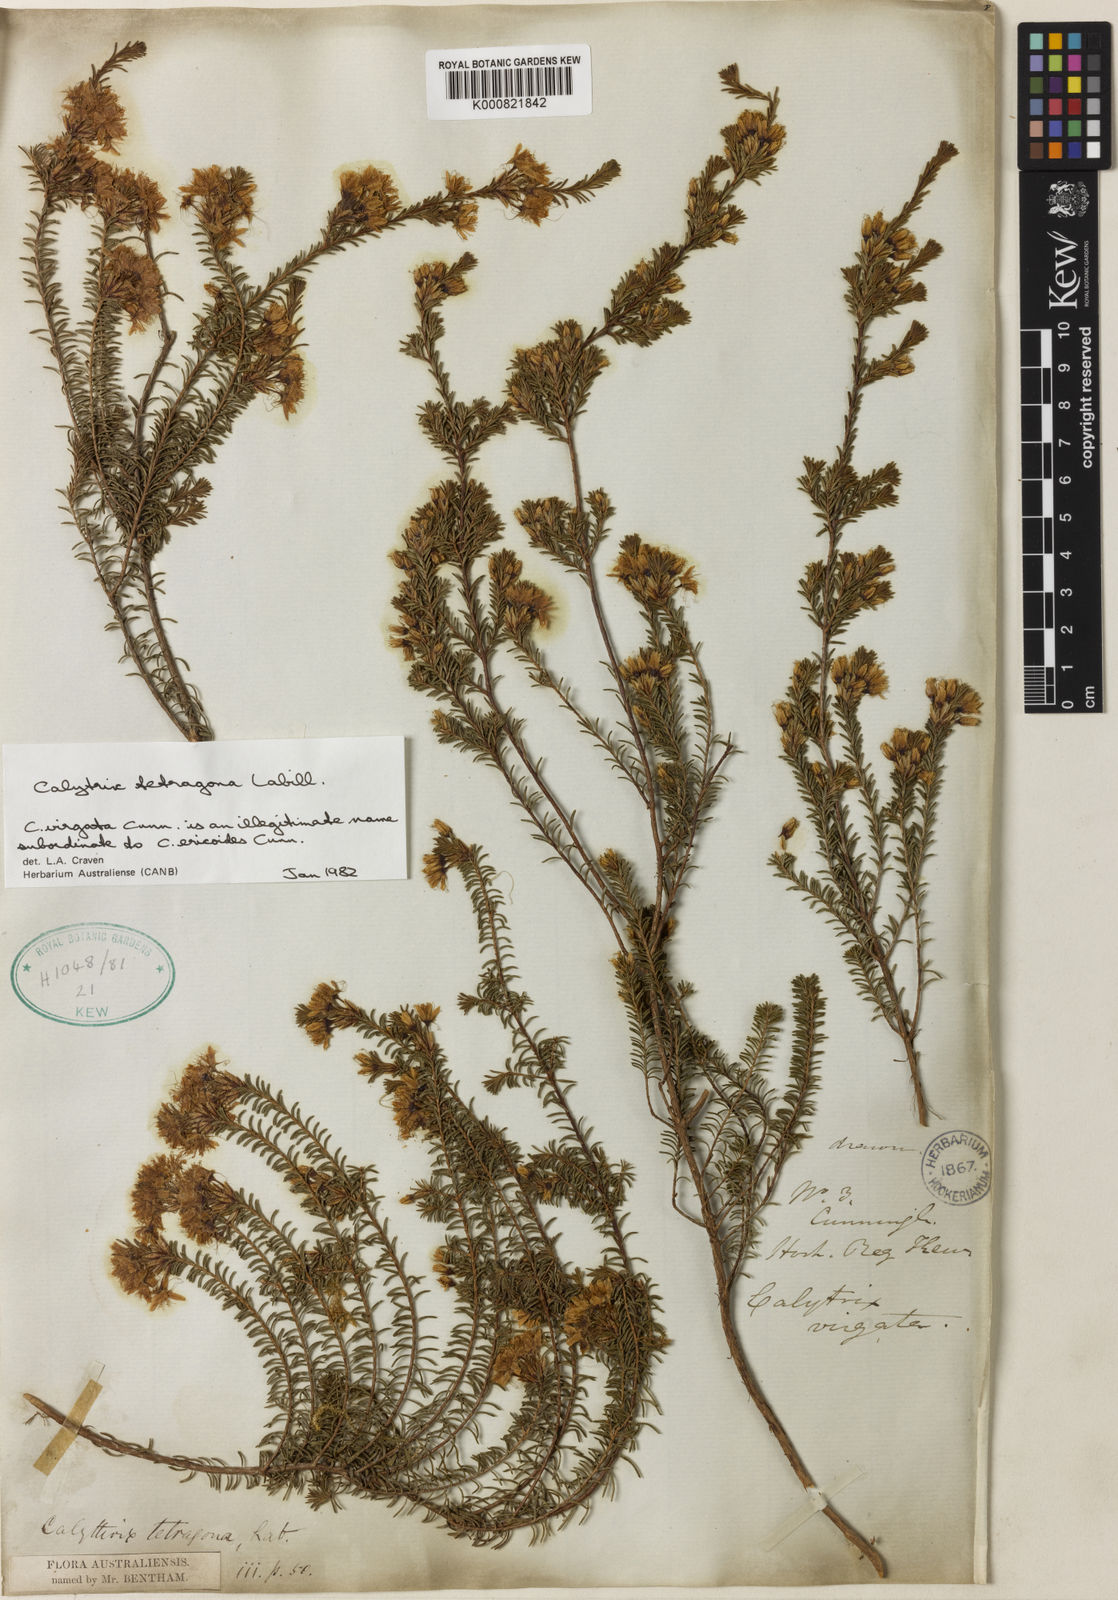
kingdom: Plantae
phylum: Tracheophyta
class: Magnoliopsida
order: Myrtales
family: Myrtaceae
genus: Calytrix
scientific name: Calytrix tetragona
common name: Common fringe myrtle
